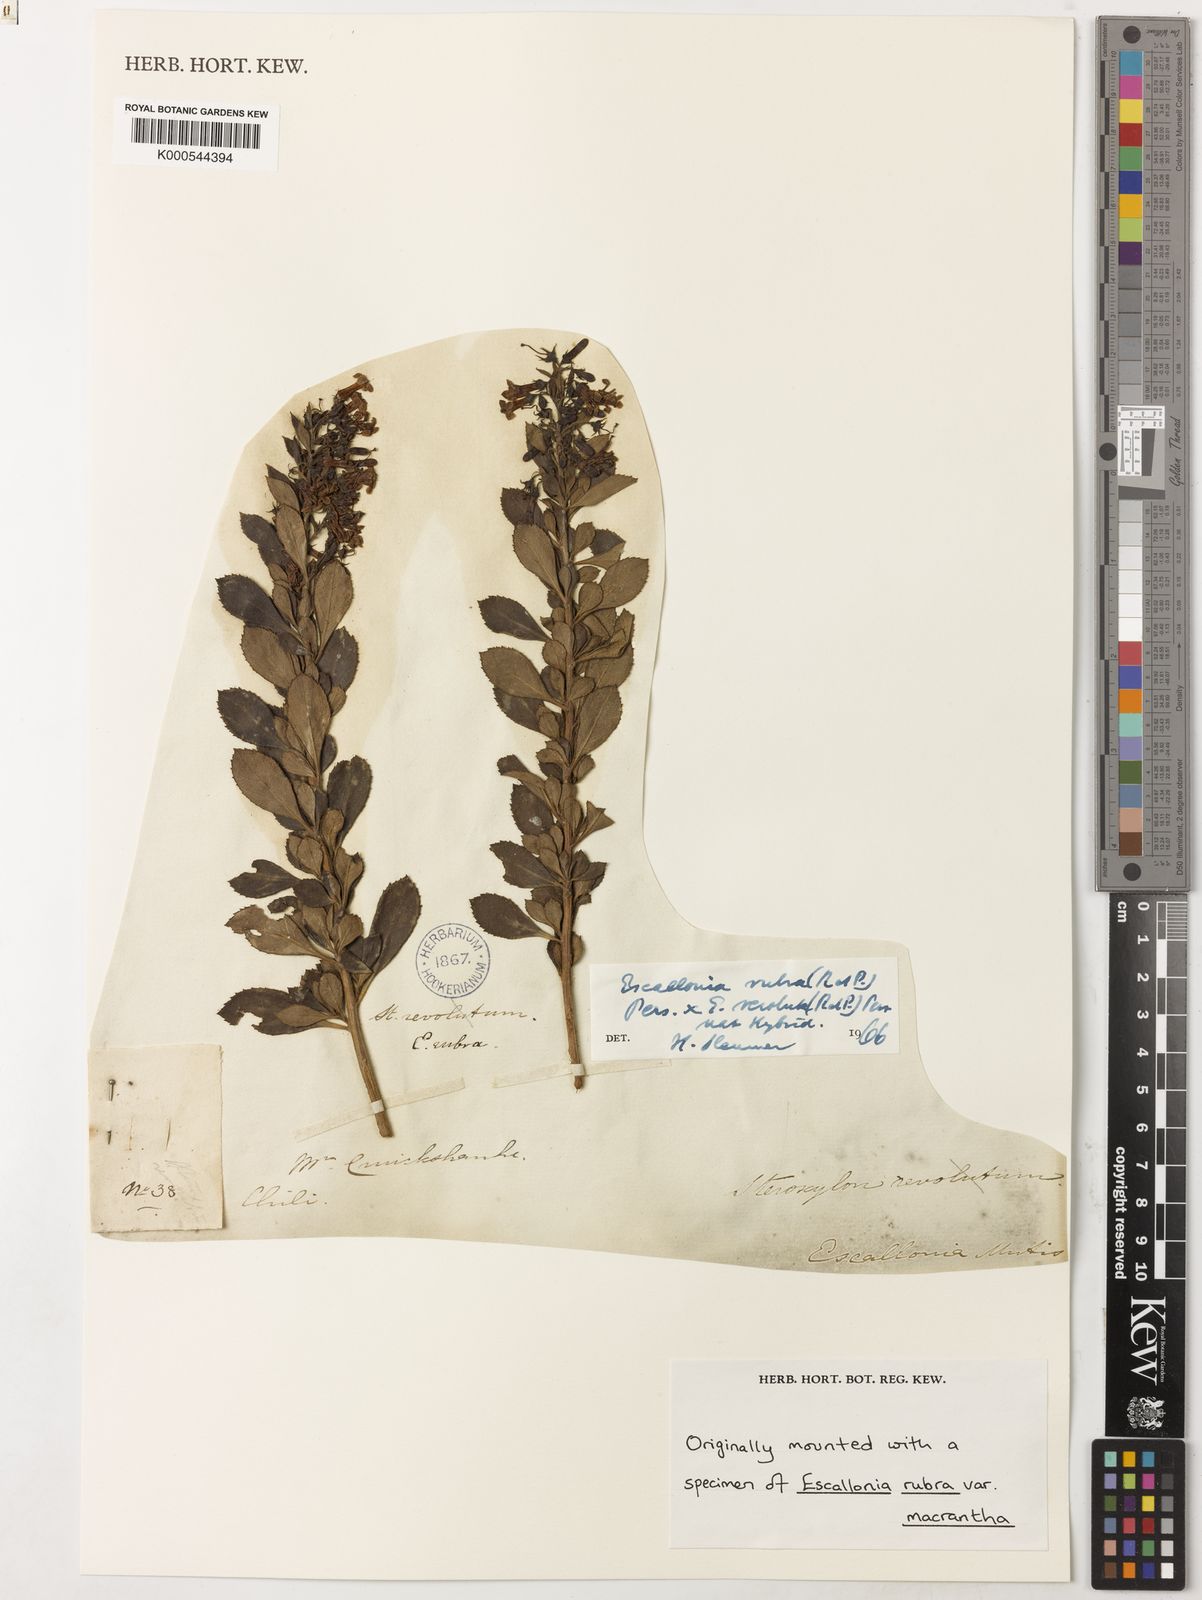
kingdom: Plantae
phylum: Tracheophyta
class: Magnoliopsida
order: Escalloniales
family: Escalloniaceae
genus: Escallonia
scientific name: Escallonia revoluta
